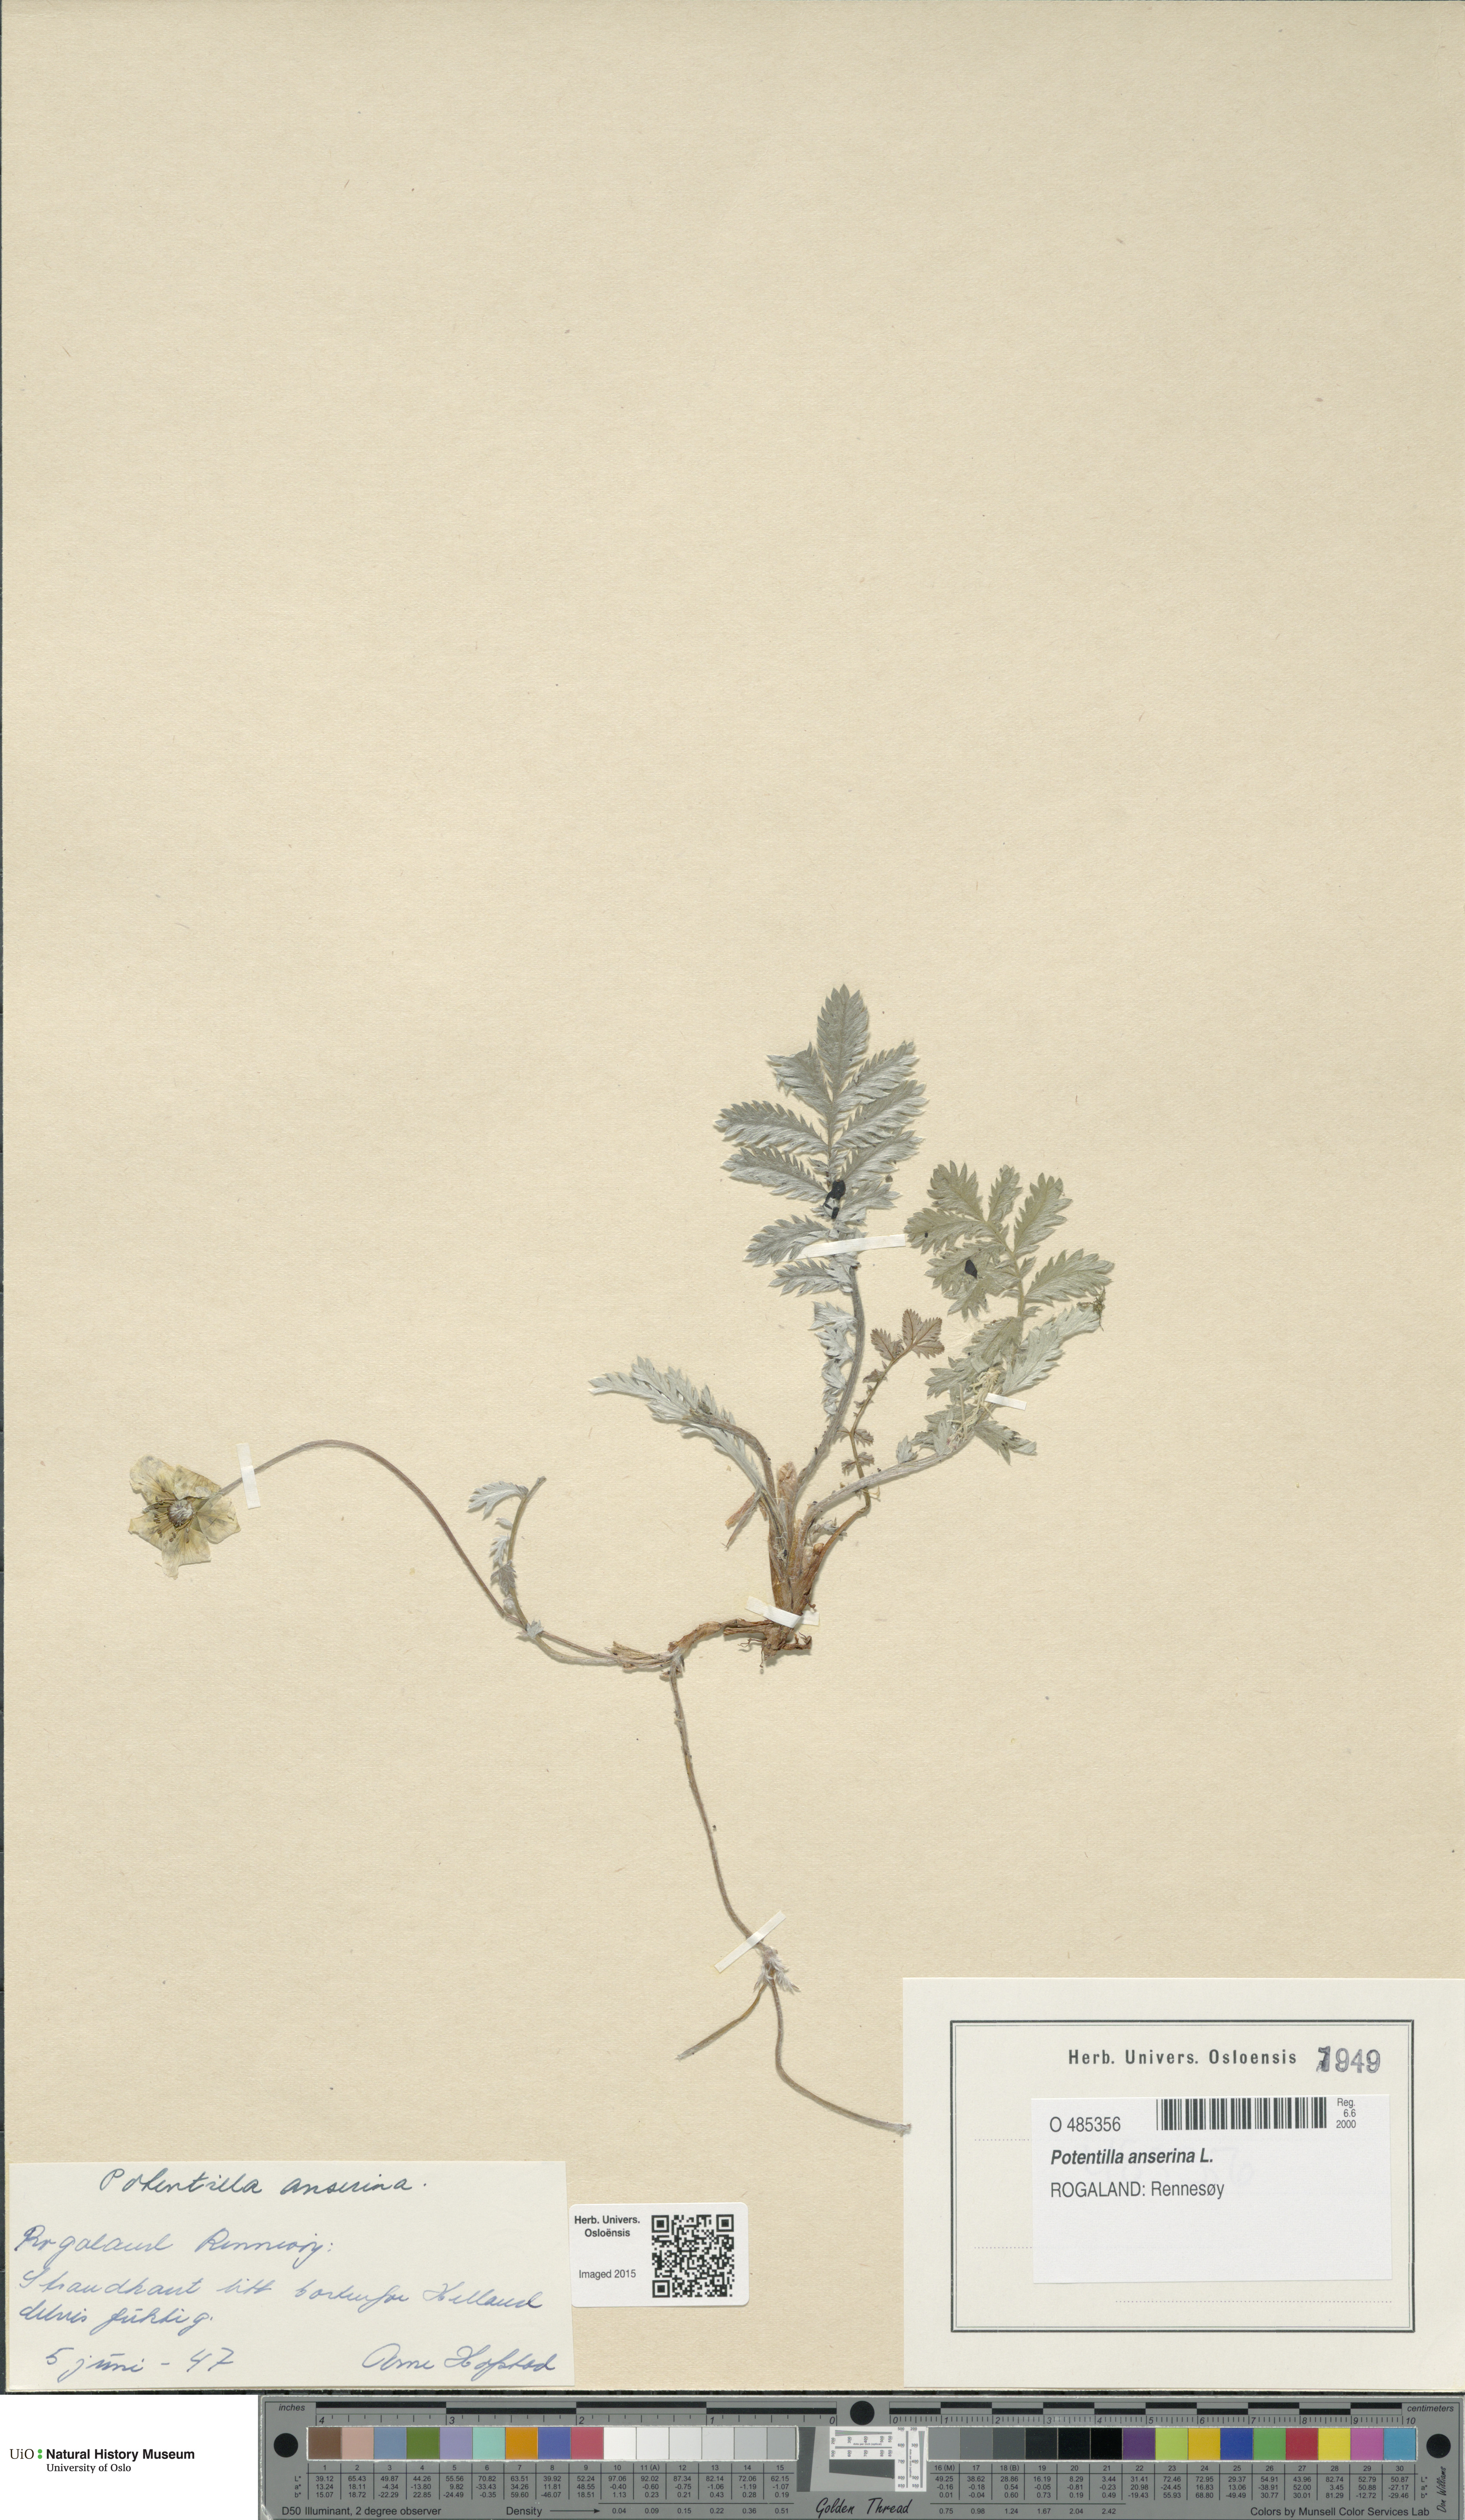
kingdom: Plantae
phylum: Tracheophyta
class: Magnoliopsida
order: Rosales
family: Rosaceae
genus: Argentina
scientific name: Argentina anserina
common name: Common silverweed
